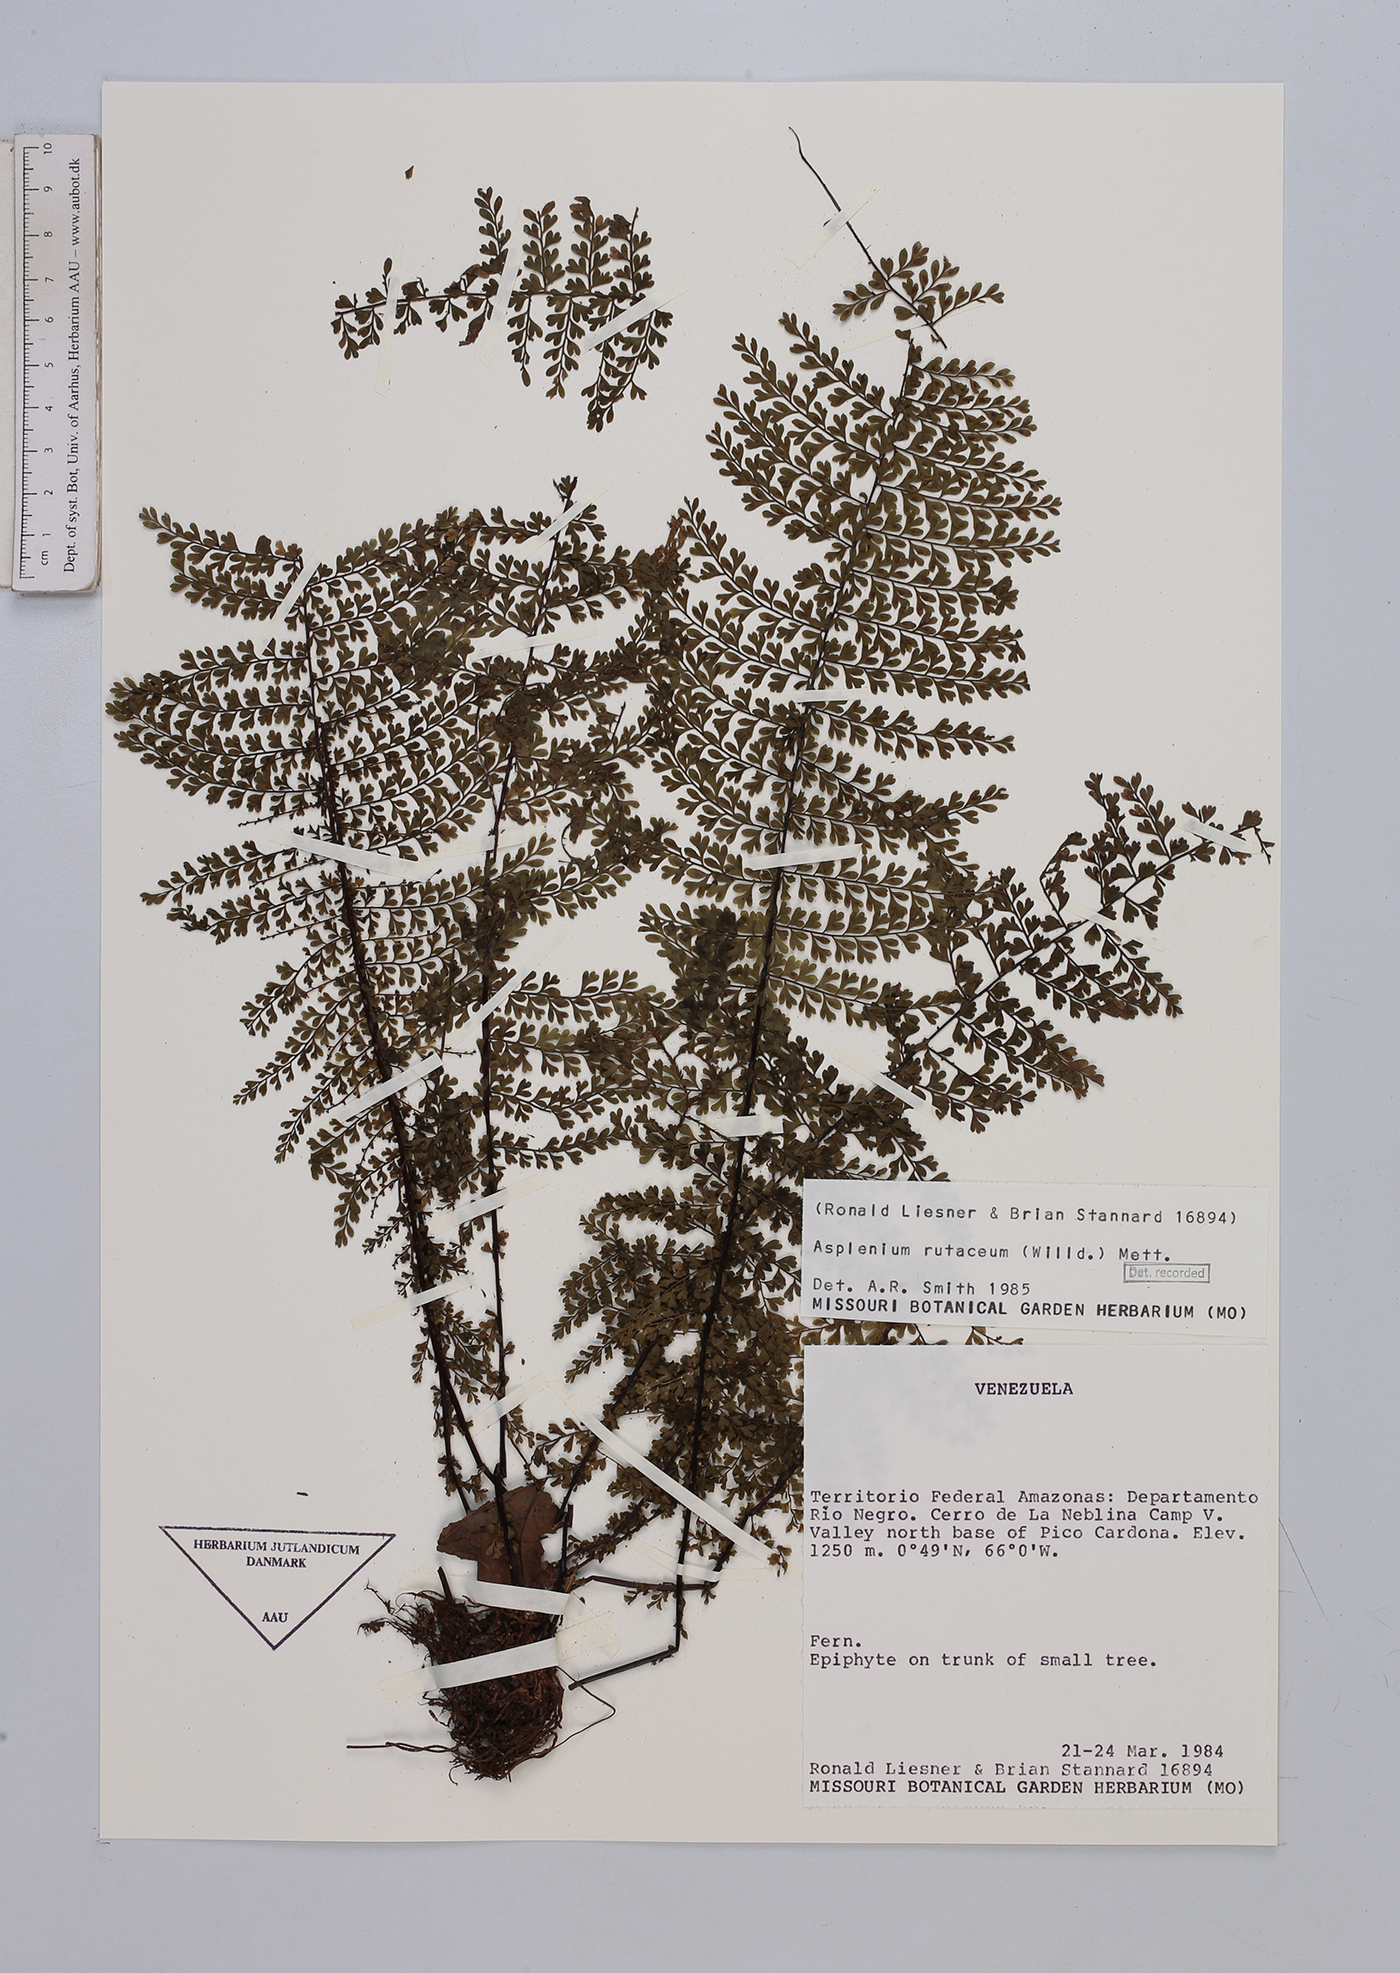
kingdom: Plantae
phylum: Tracheophyta
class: Polypodiopsida
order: Polypodiales
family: Aspleniaceae
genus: Asplenium
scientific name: Asplenium rutaceum
